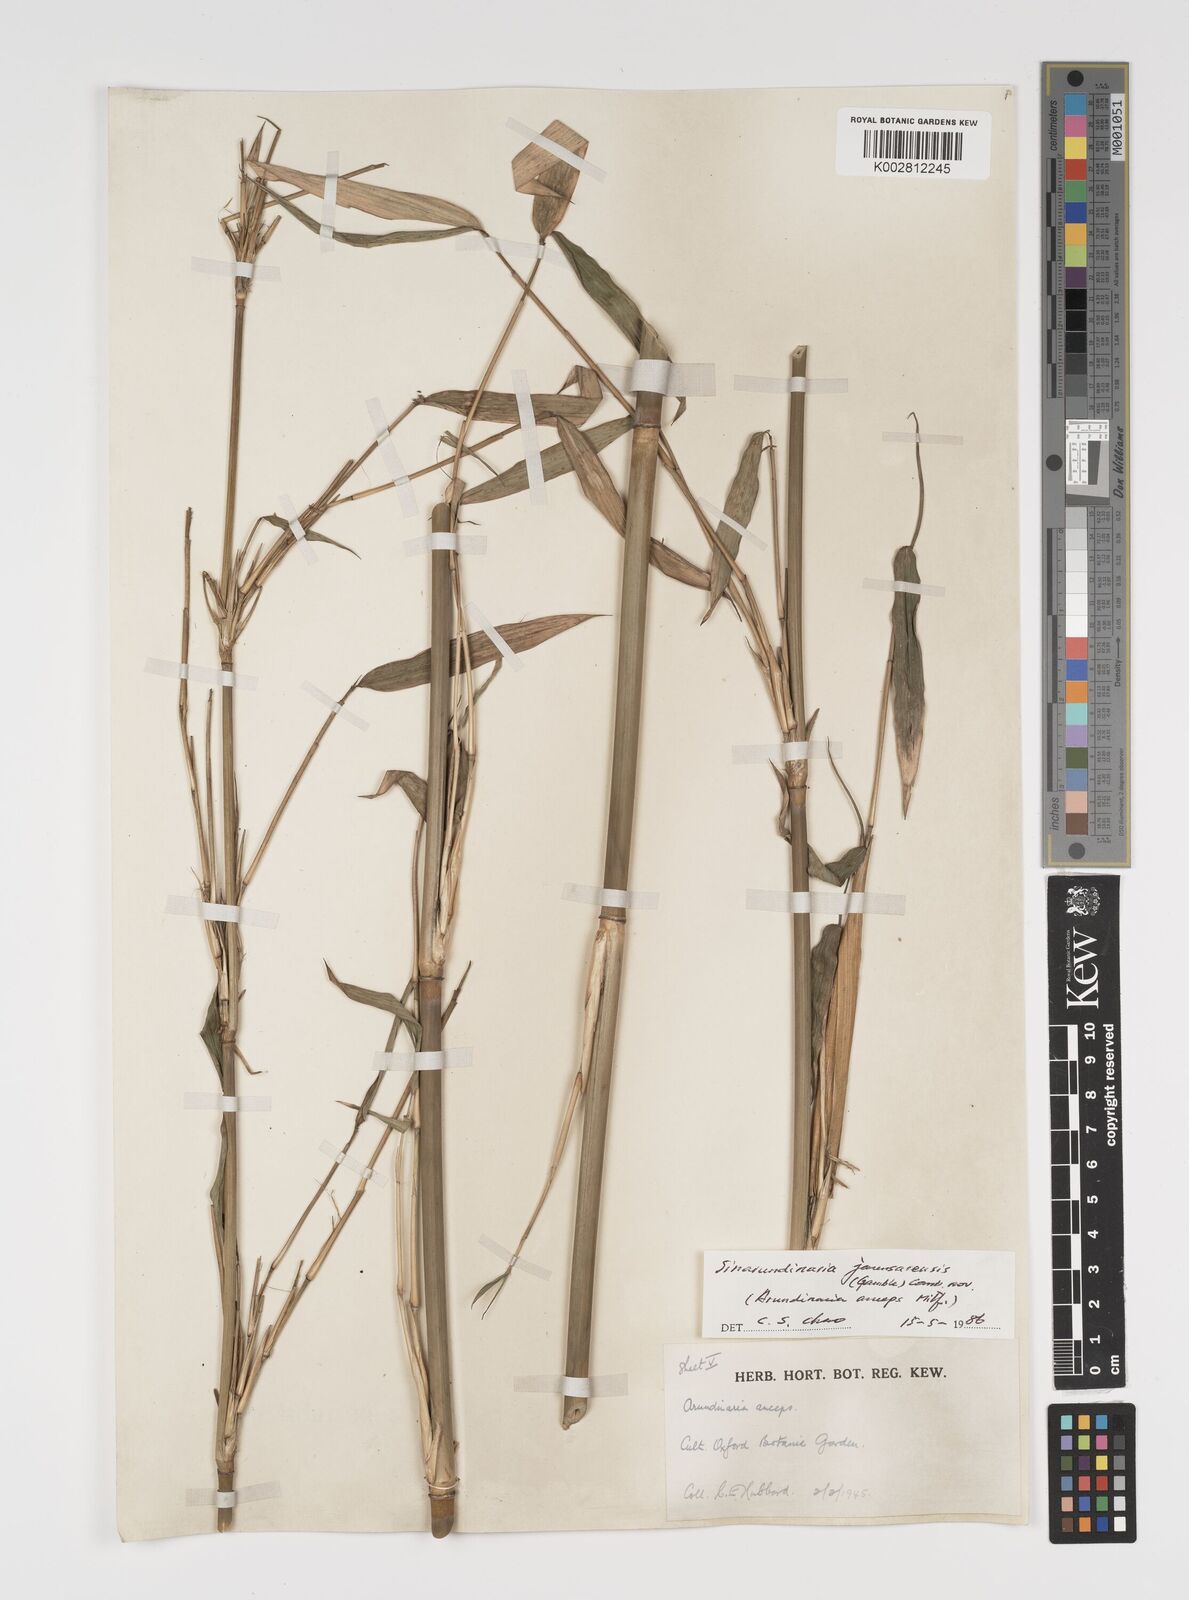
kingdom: Plantae
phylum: Tracheophyta
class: Liliopsida
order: Poales
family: Poaceae
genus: Yushania
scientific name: Yushania
